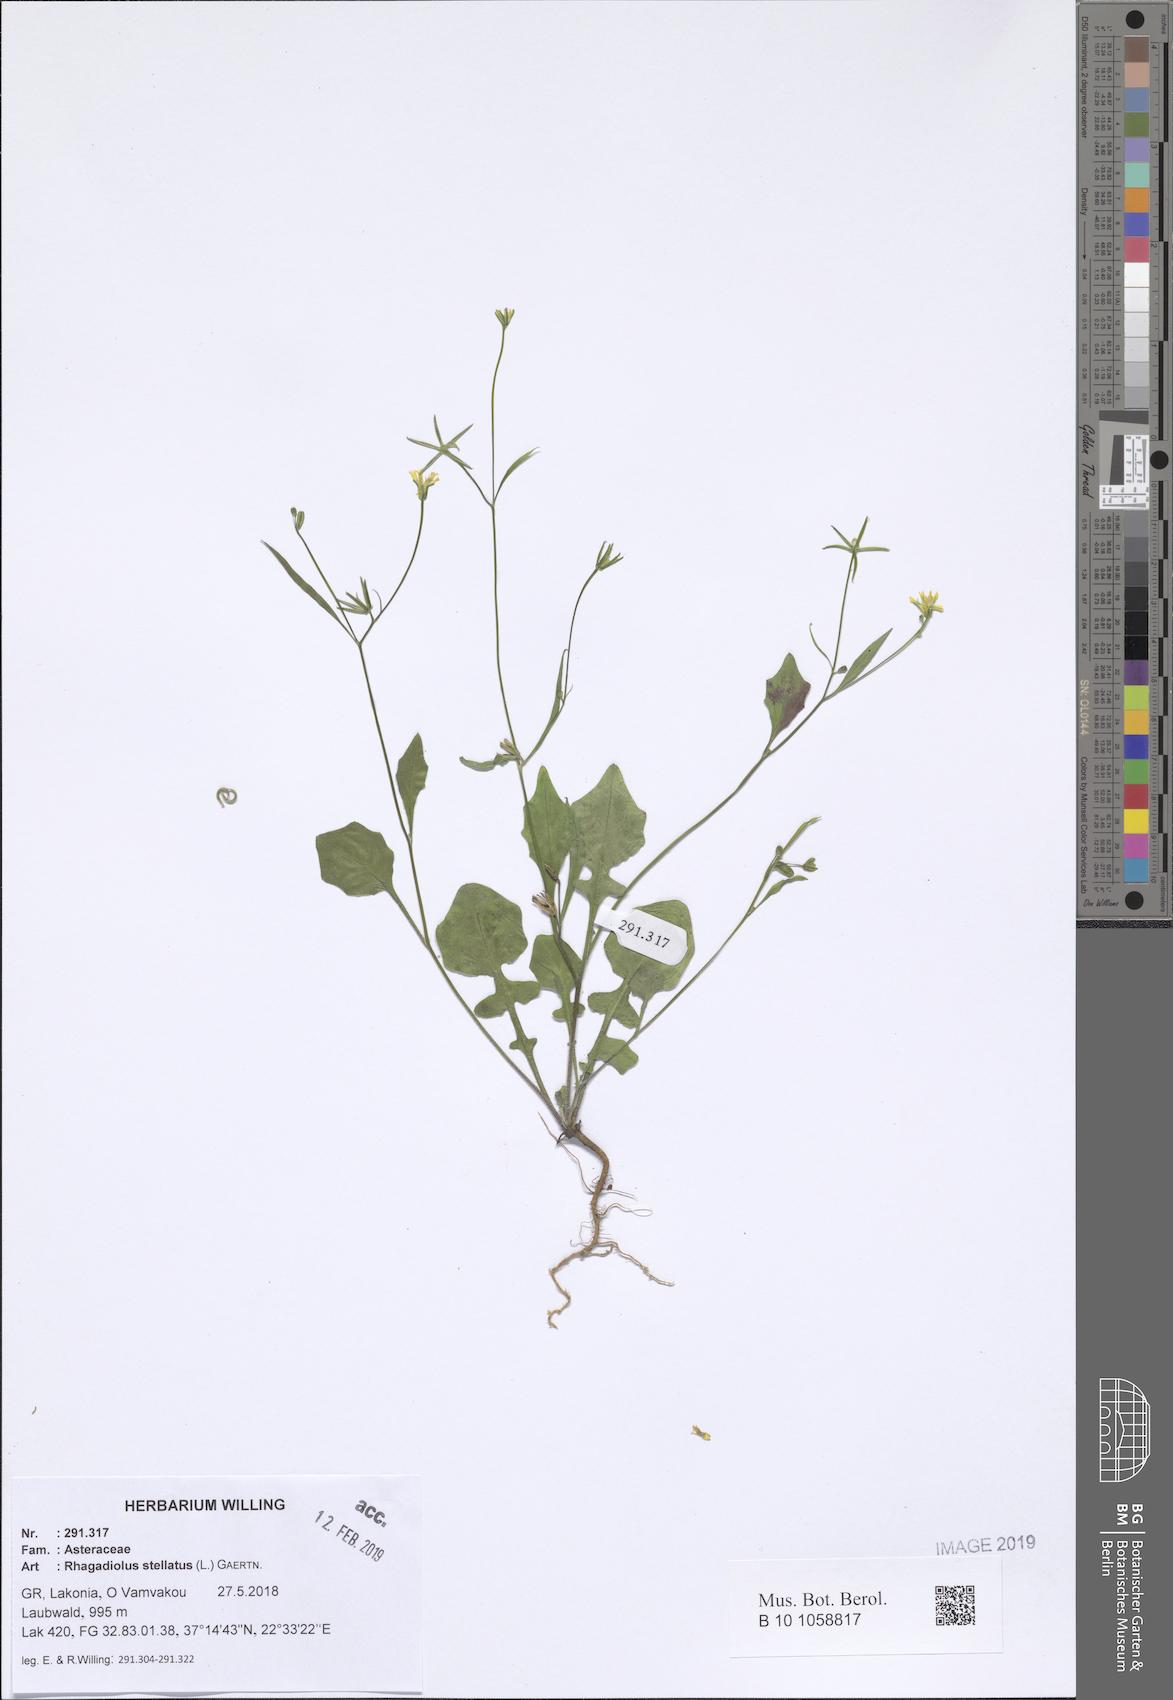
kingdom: Plantae
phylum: Tracheophyta
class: Magnoliopsida
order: Asterales
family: Asteraceae
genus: Rhagadiolus
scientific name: Rhagadiolus stellatus
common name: Star hawkbit
